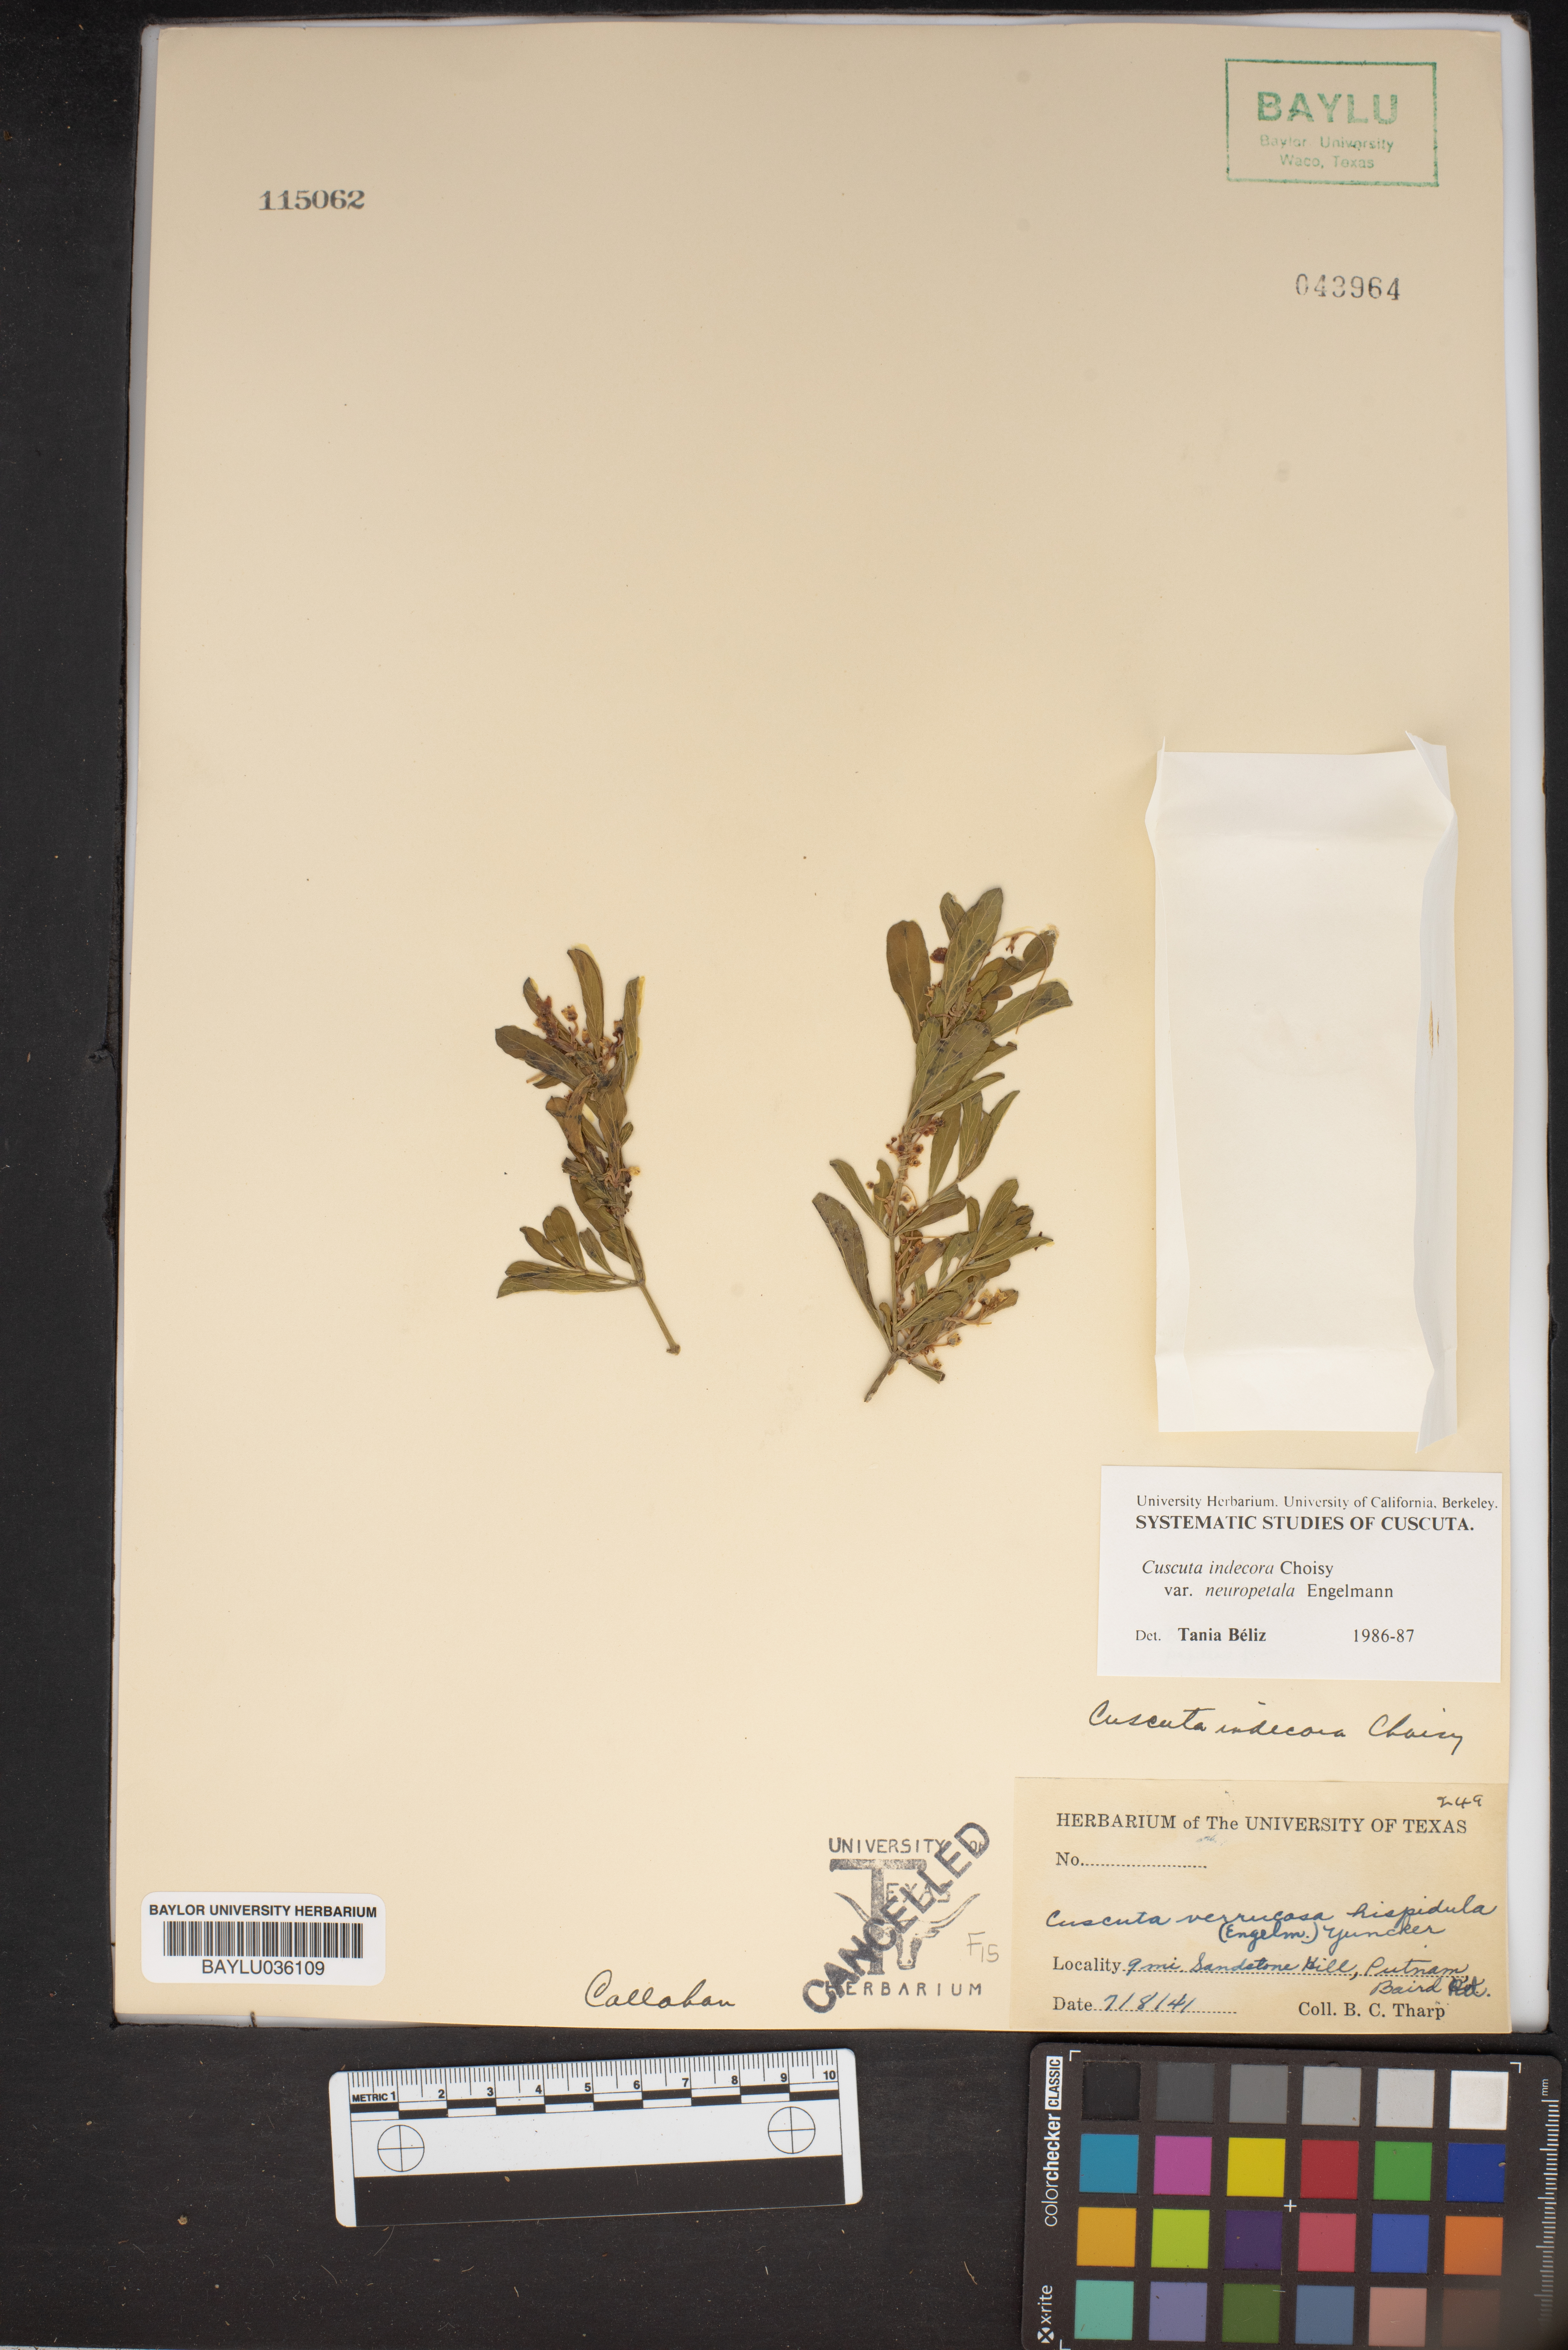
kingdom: Plantae
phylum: Tracheophyta
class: Magnoliopsida
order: Solanales
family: Convolvulaceae
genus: Cuscuta
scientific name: Cuscuta indecora
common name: Large-seed dodder
